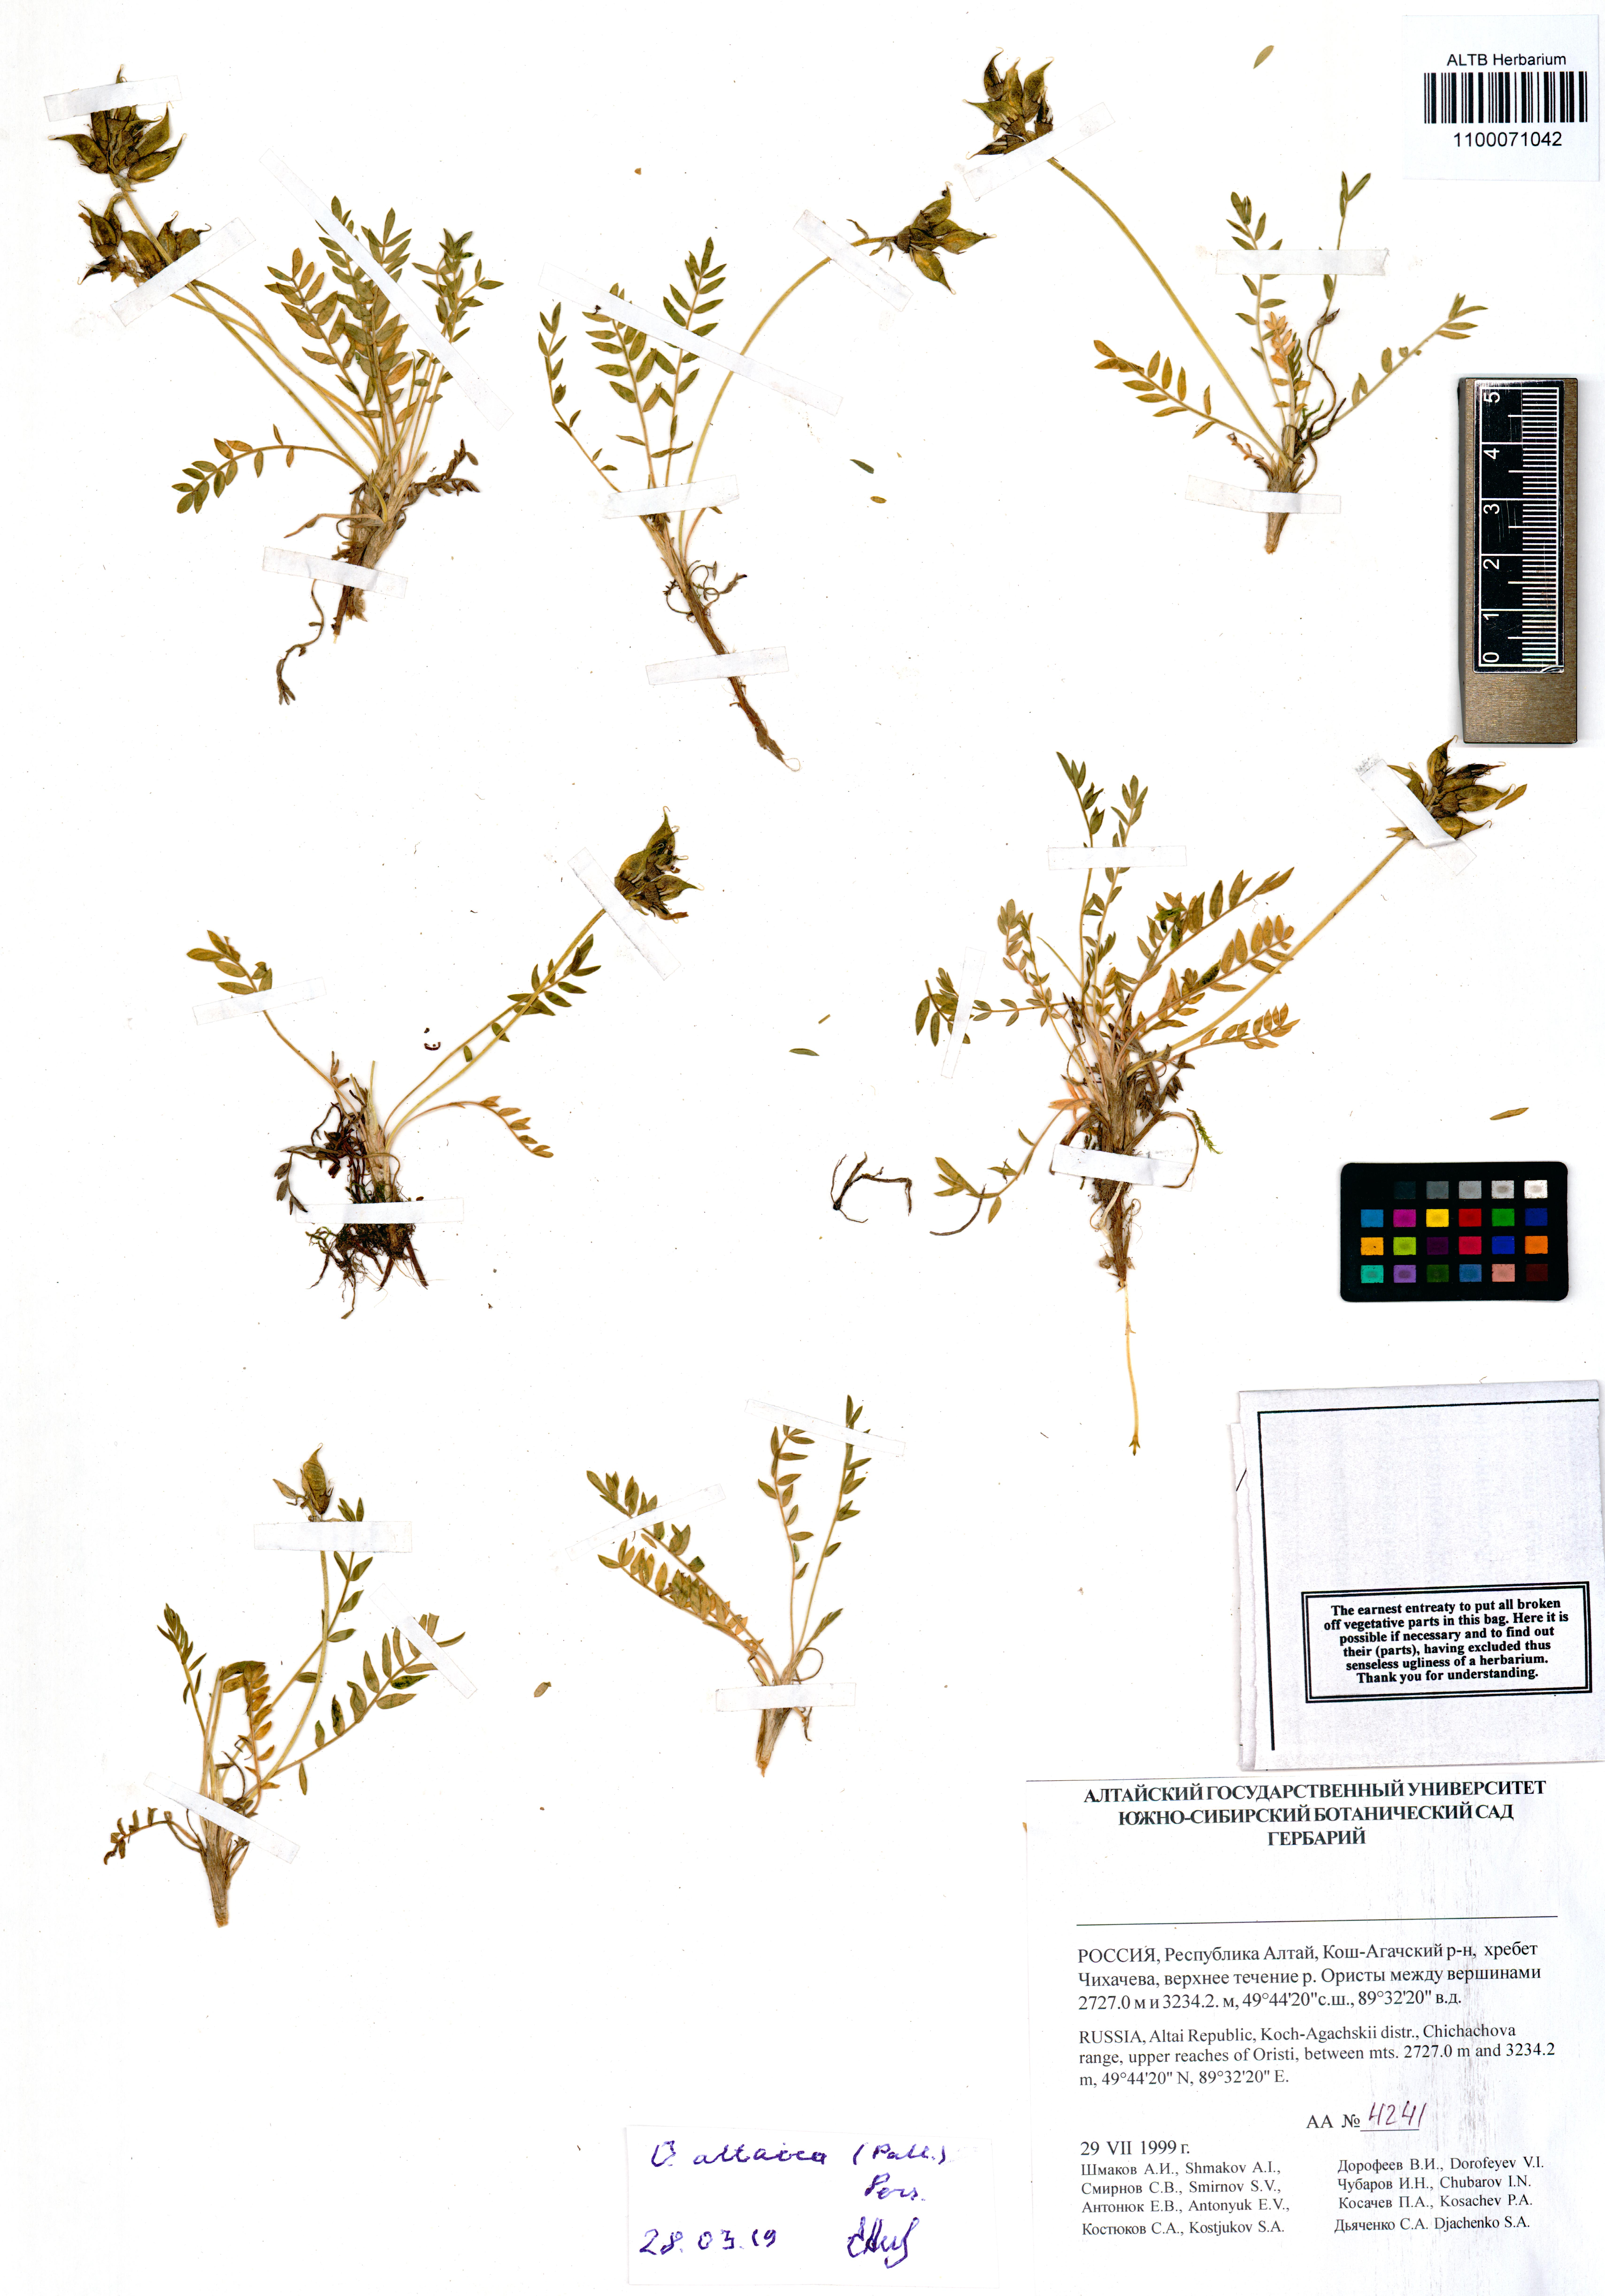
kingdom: Plantae
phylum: Tracheophyta
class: Magnoliopsida
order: Fabales
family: Fabaceae
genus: Oxytropis
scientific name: Oxytropis altaica
